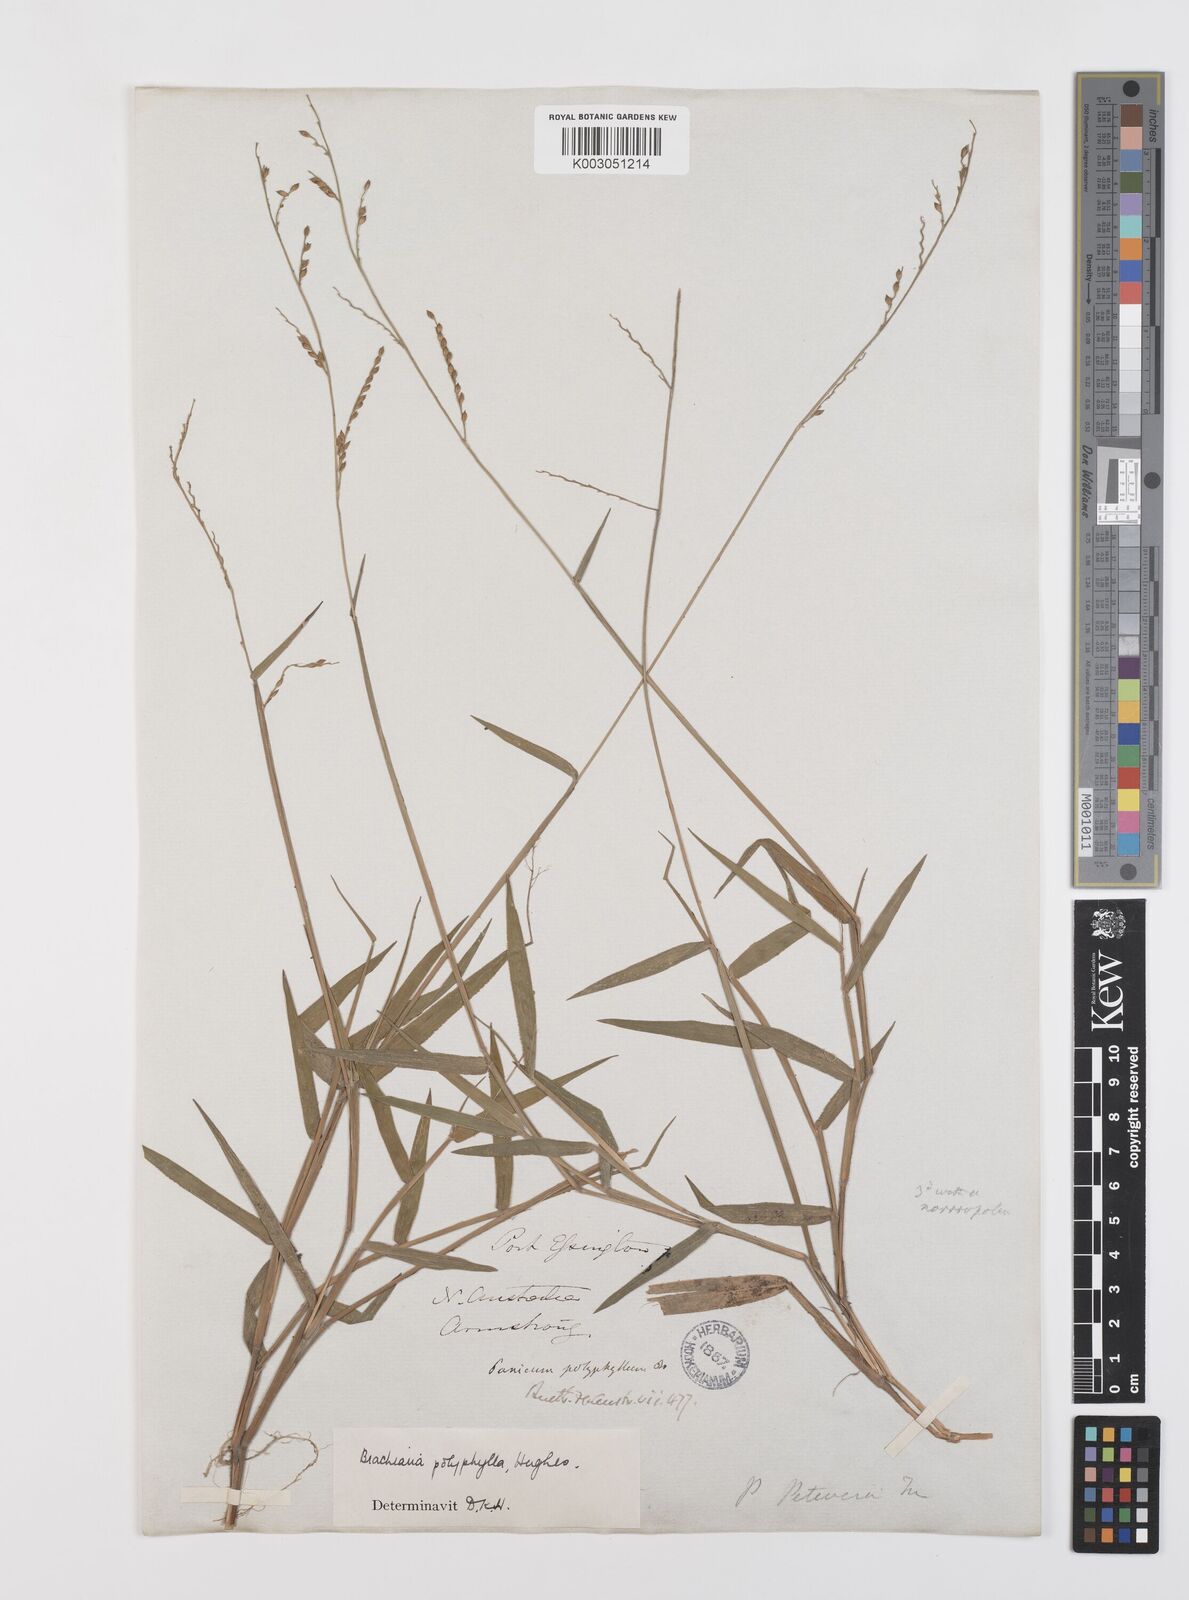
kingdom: Plantae
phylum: Tracheophyta
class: Liliopsida
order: Poales
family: Poaceae
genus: Urochloa
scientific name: Urochloa polyphylla
